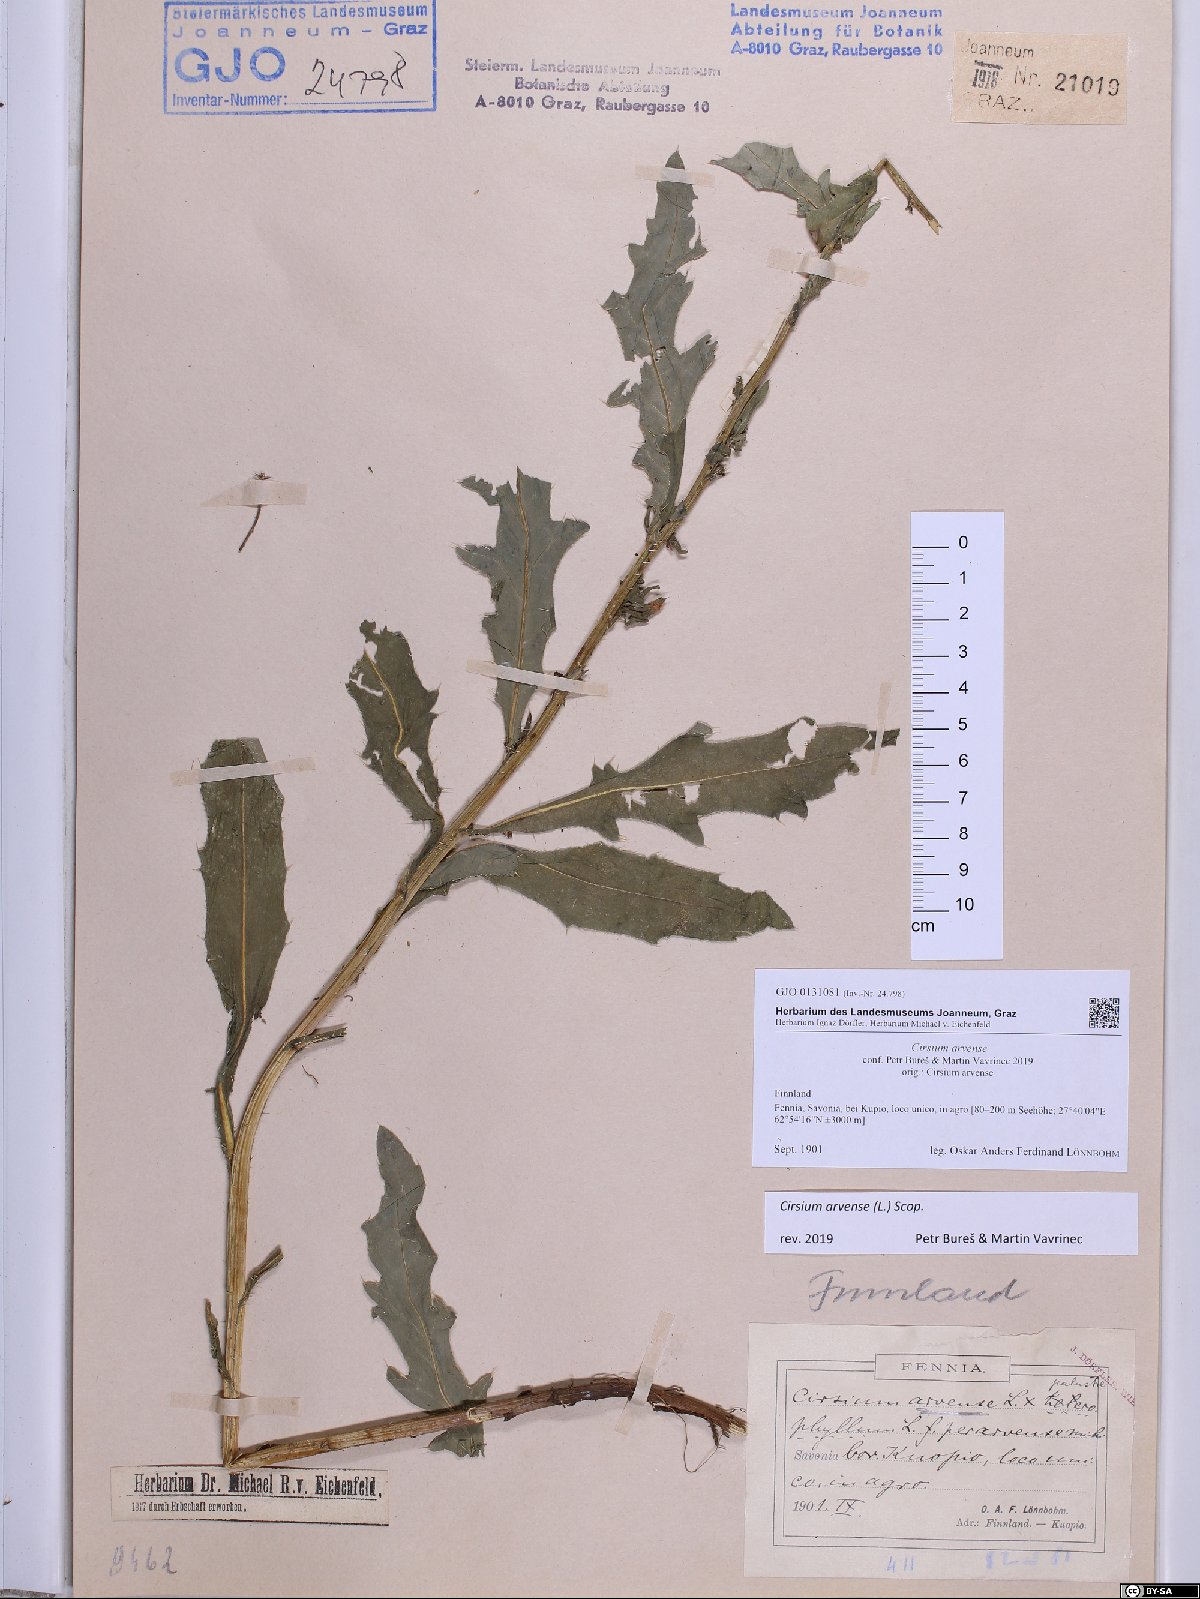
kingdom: Plantae
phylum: Tracheophyta
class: Magnoliopsida
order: Asterales
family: Asteraceae
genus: Cirsium
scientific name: Cirsium arvense
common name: Creeping thistle
